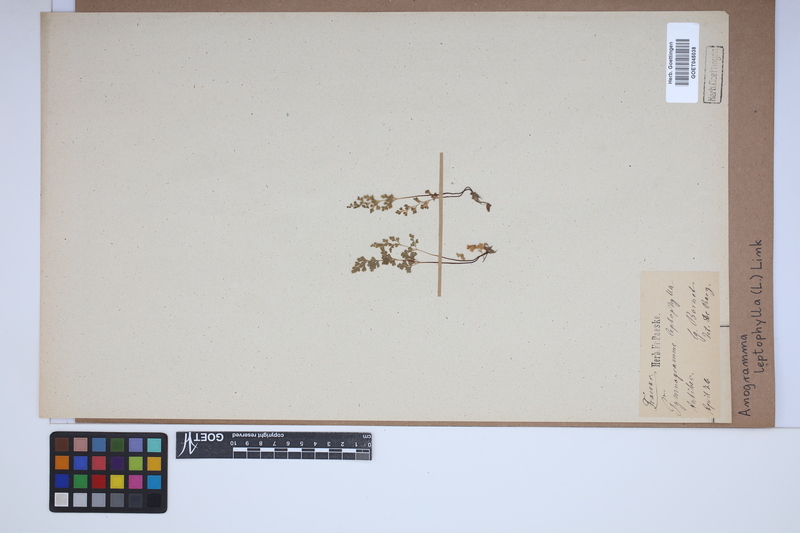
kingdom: Plantae
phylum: Tracheophyta
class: Polypodiopsida
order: Polypodiales
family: Pteridaceae
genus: Anogramma
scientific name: Anogramma leptophylla
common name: Jersey fern
